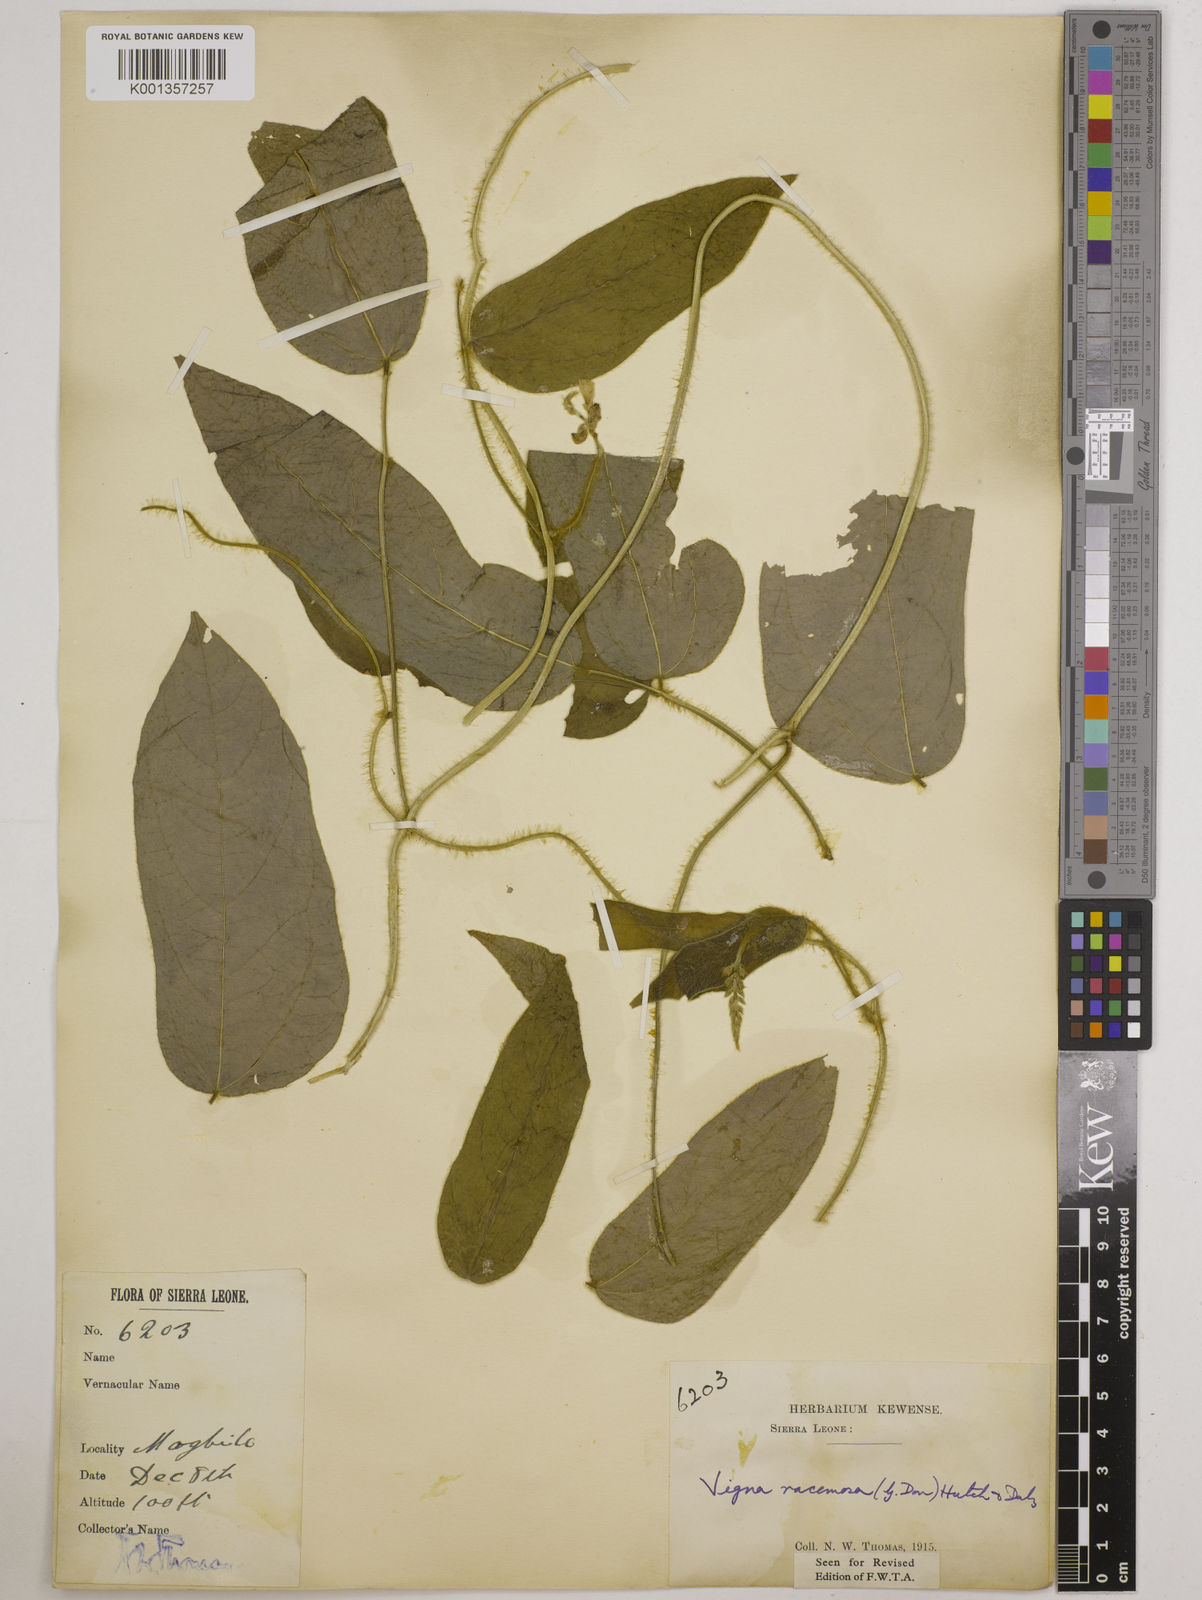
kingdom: Plantae
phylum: Tracheophyta
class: Magnoliopsida
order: Fabales
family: Fabaceae
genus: Vigna
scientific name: Vigna racemosa
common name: Beans not eaten
